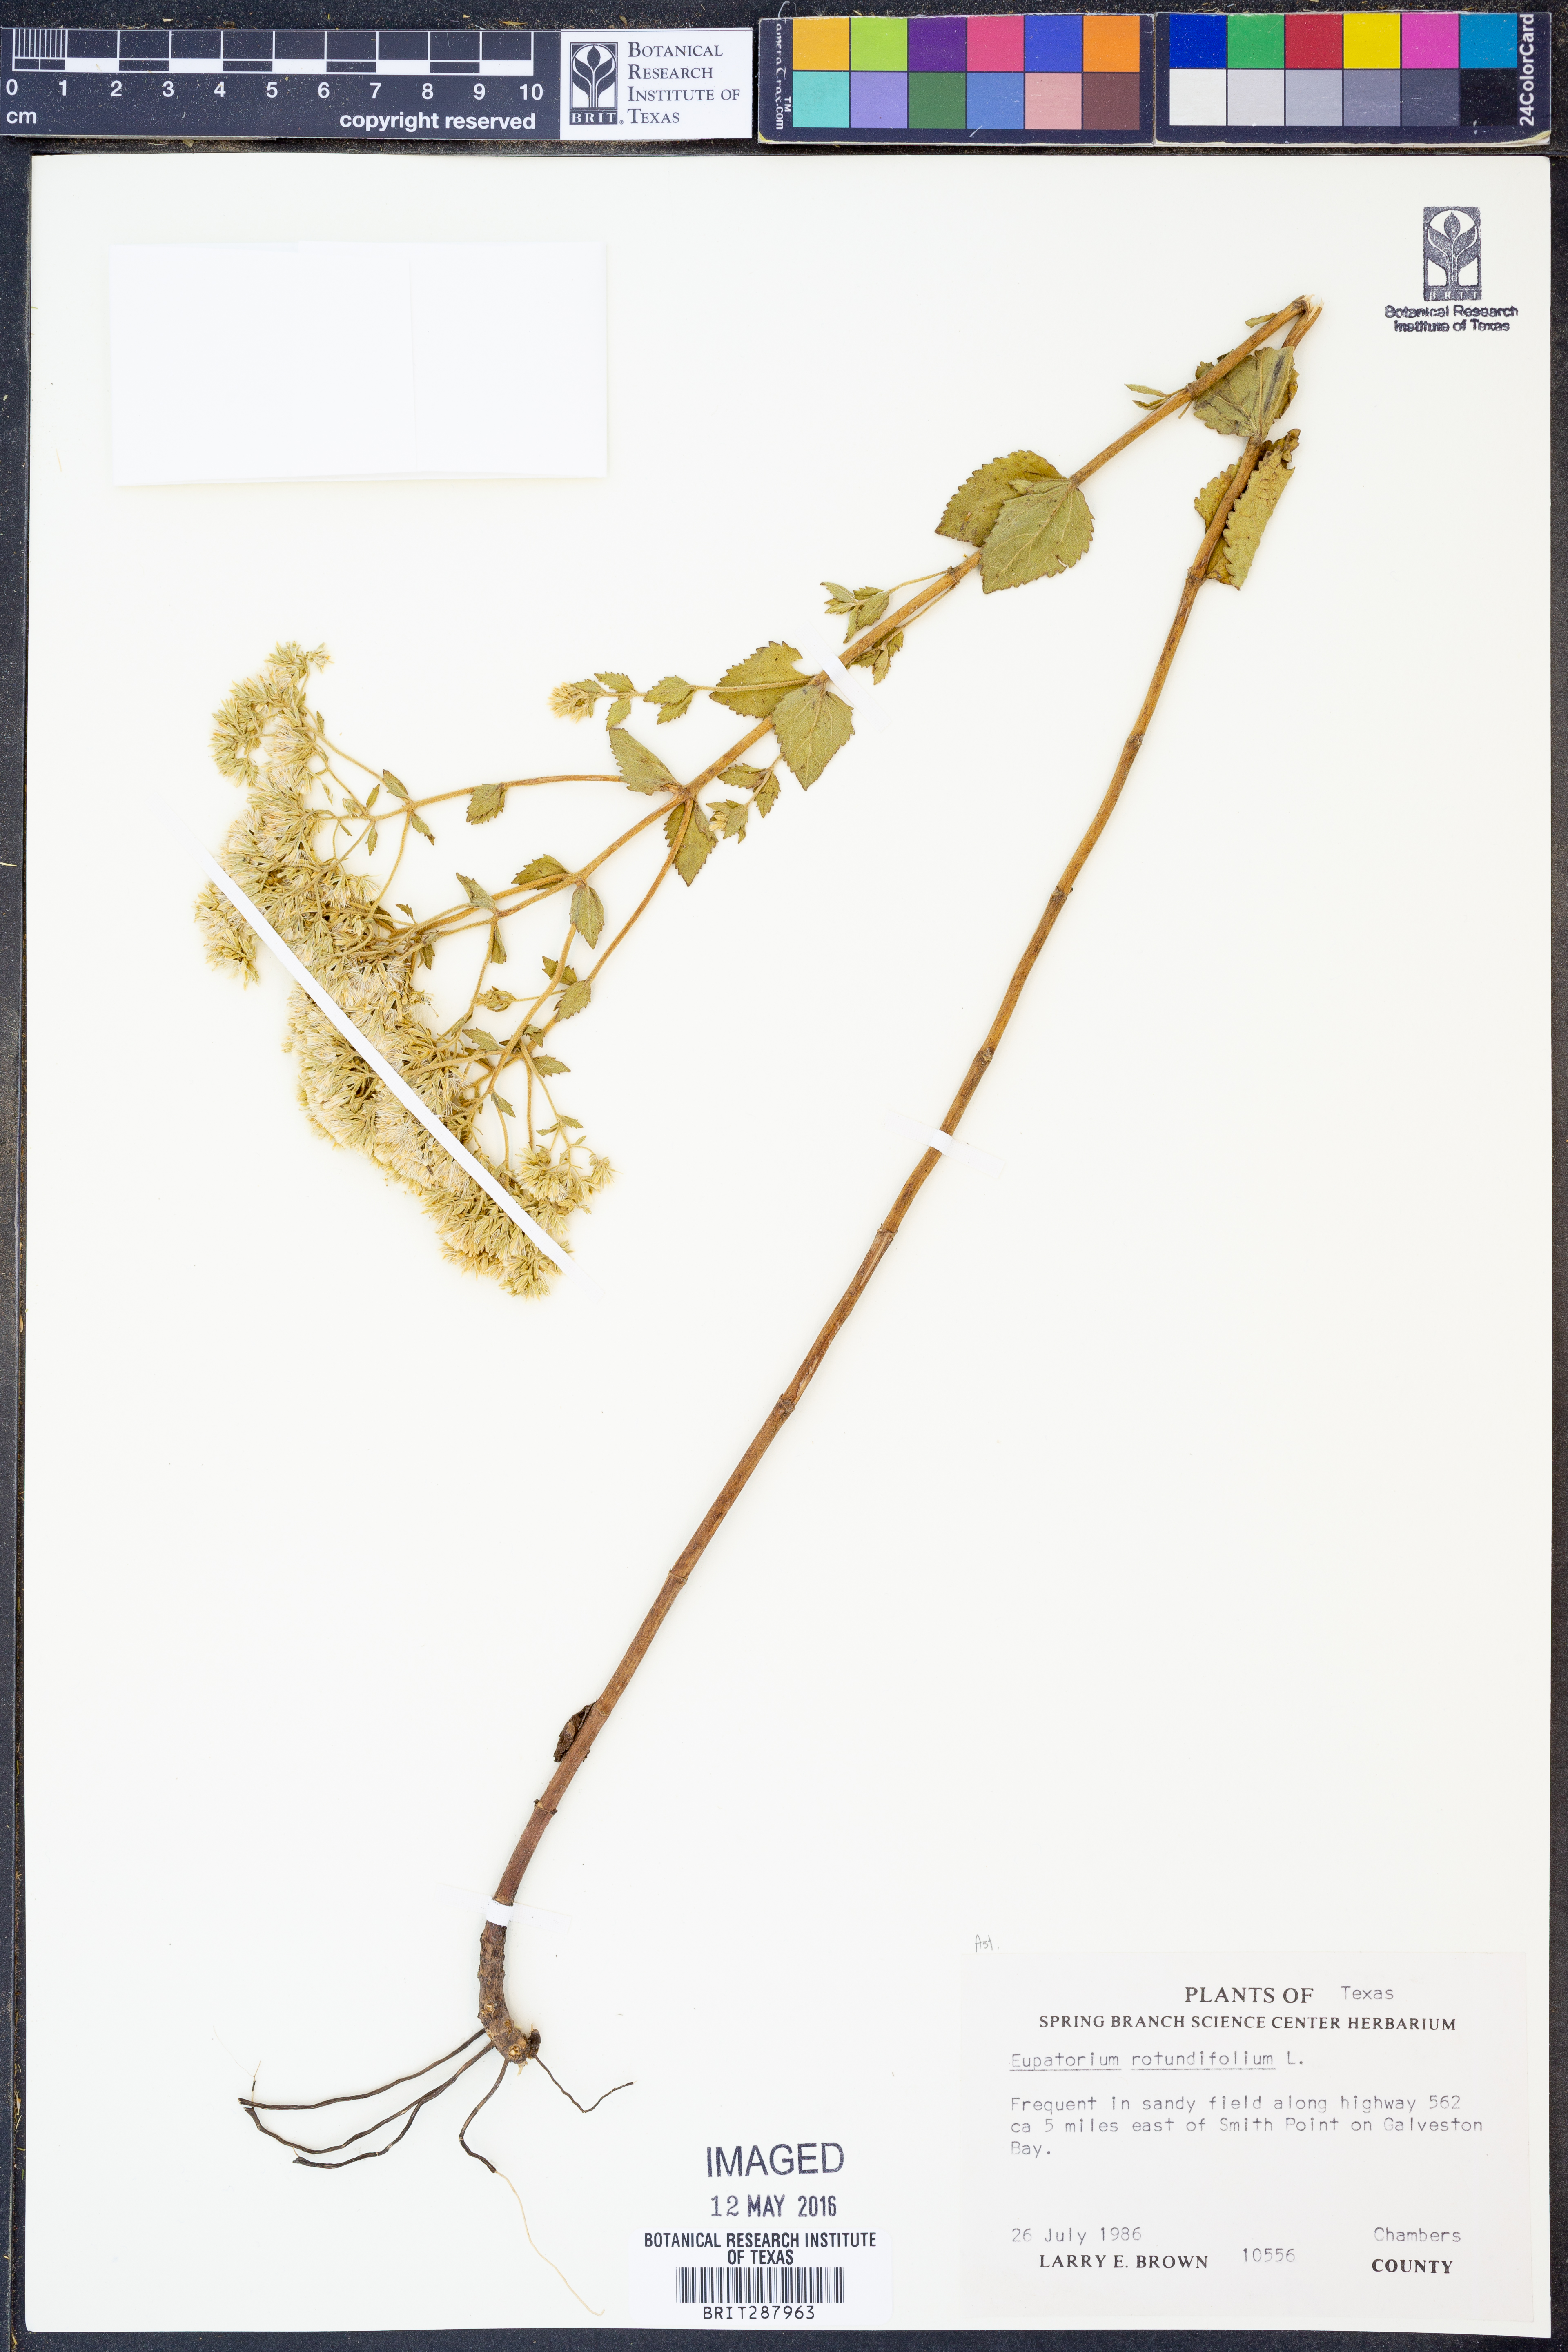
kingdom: Plantae
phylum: Tracheophyta
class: Magnoliopsida
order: Asterales
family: Asteraceae
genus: Eupatorium
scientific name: Eupatorium rotundifolium
